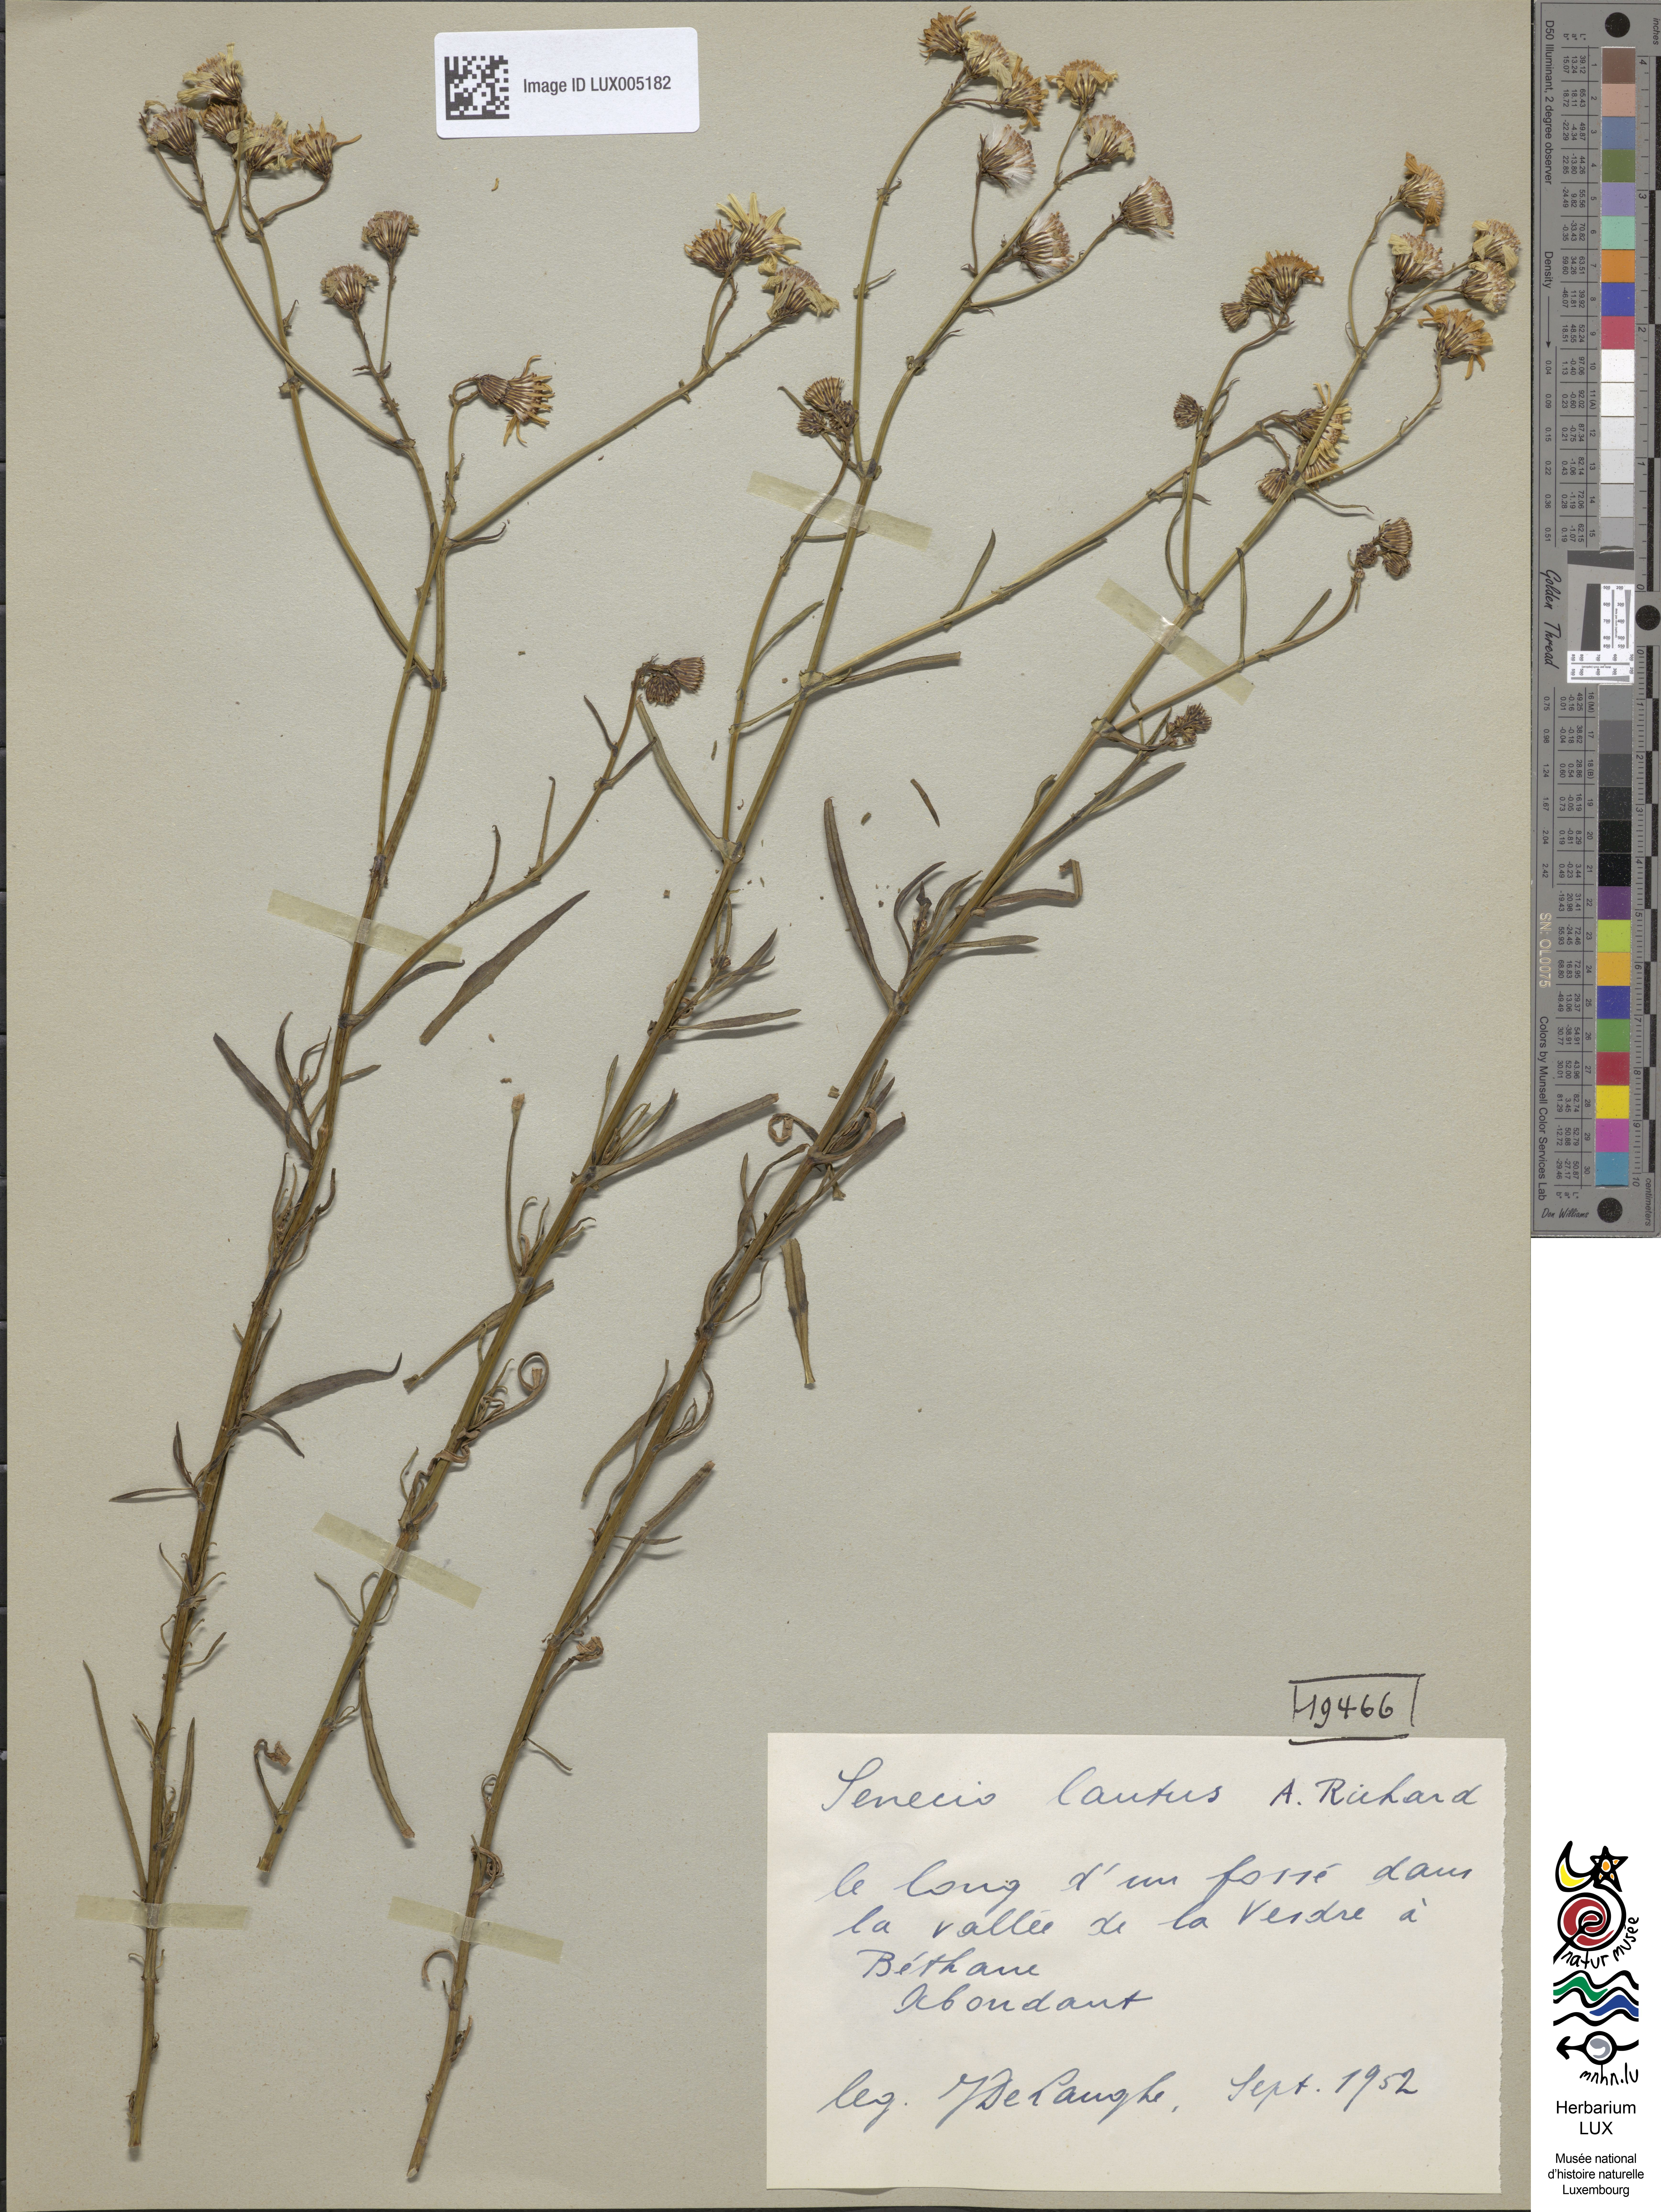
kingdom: Plantae
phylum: Tracheophyta
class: Magnoliopsida
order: Asterales
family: Asteraceae
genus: Senecio
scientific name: Senecio lautus
